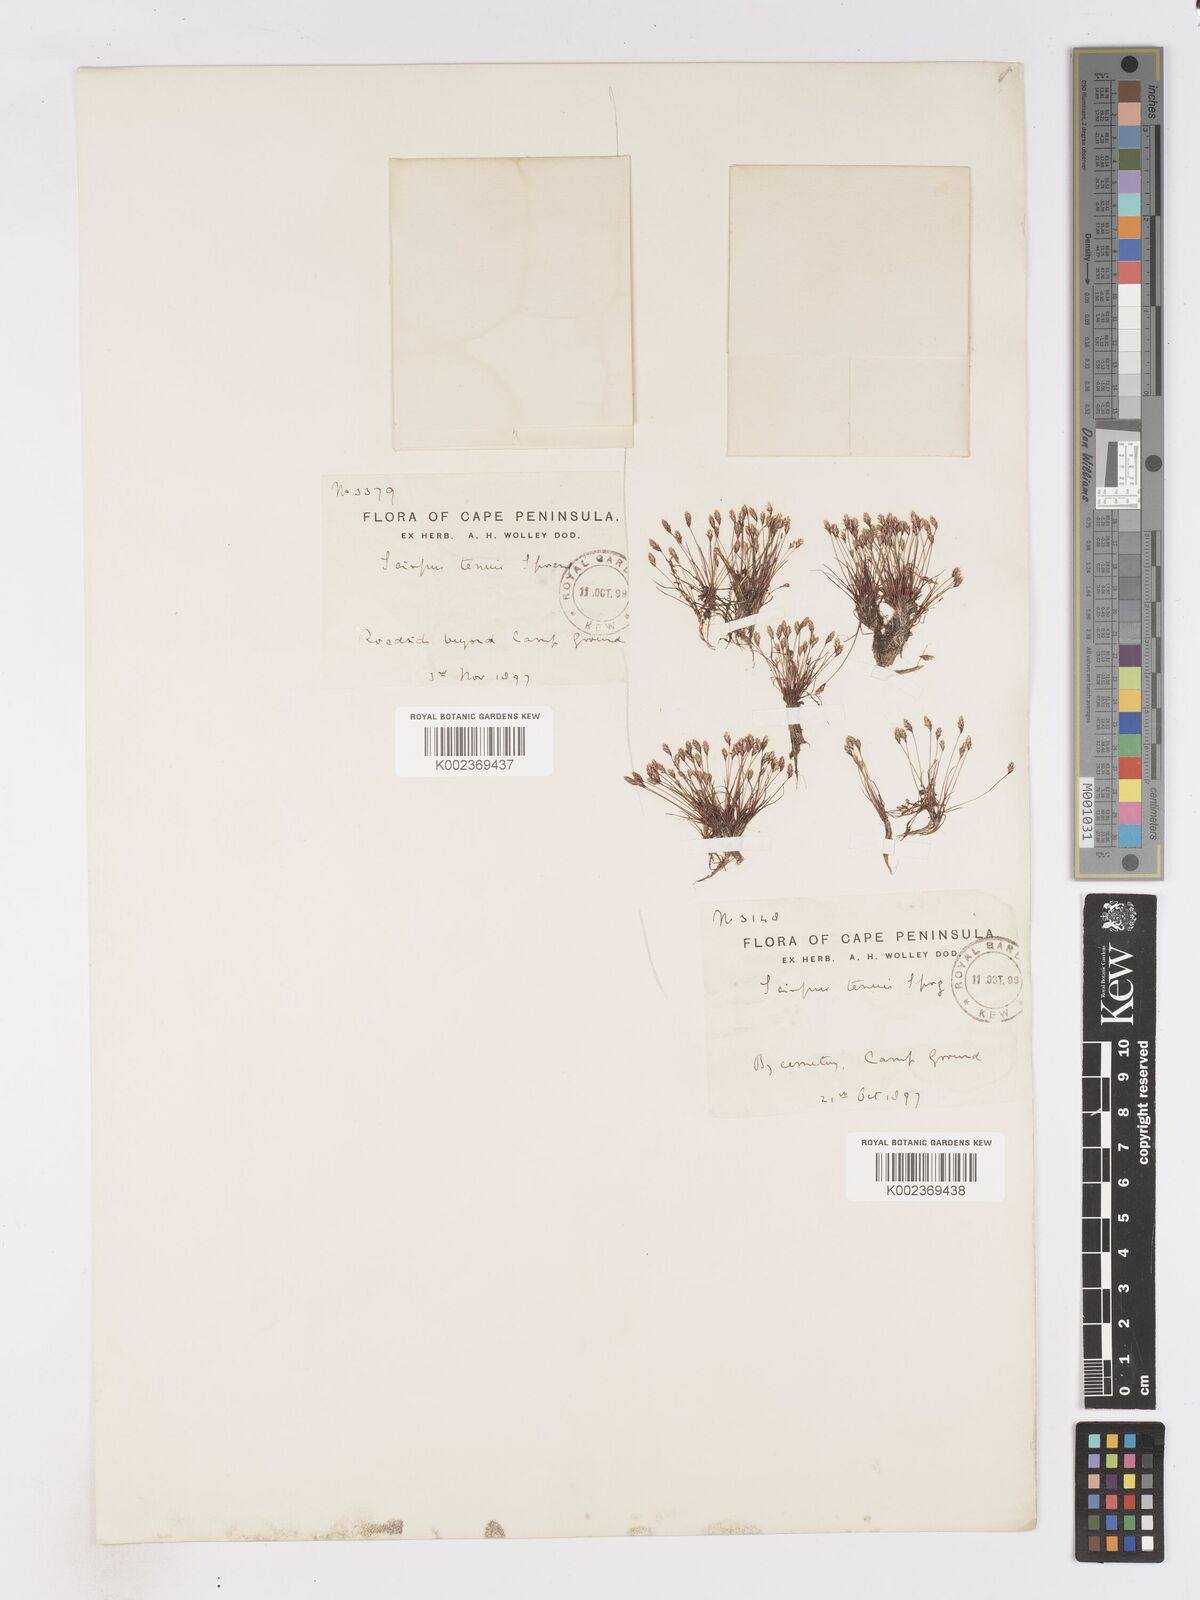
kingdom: Plantae
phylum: Tracheophyta
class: Liliopsida
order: Poales
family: Cyperaceae
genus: Isolepis
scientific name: Isolepis tenuissima
